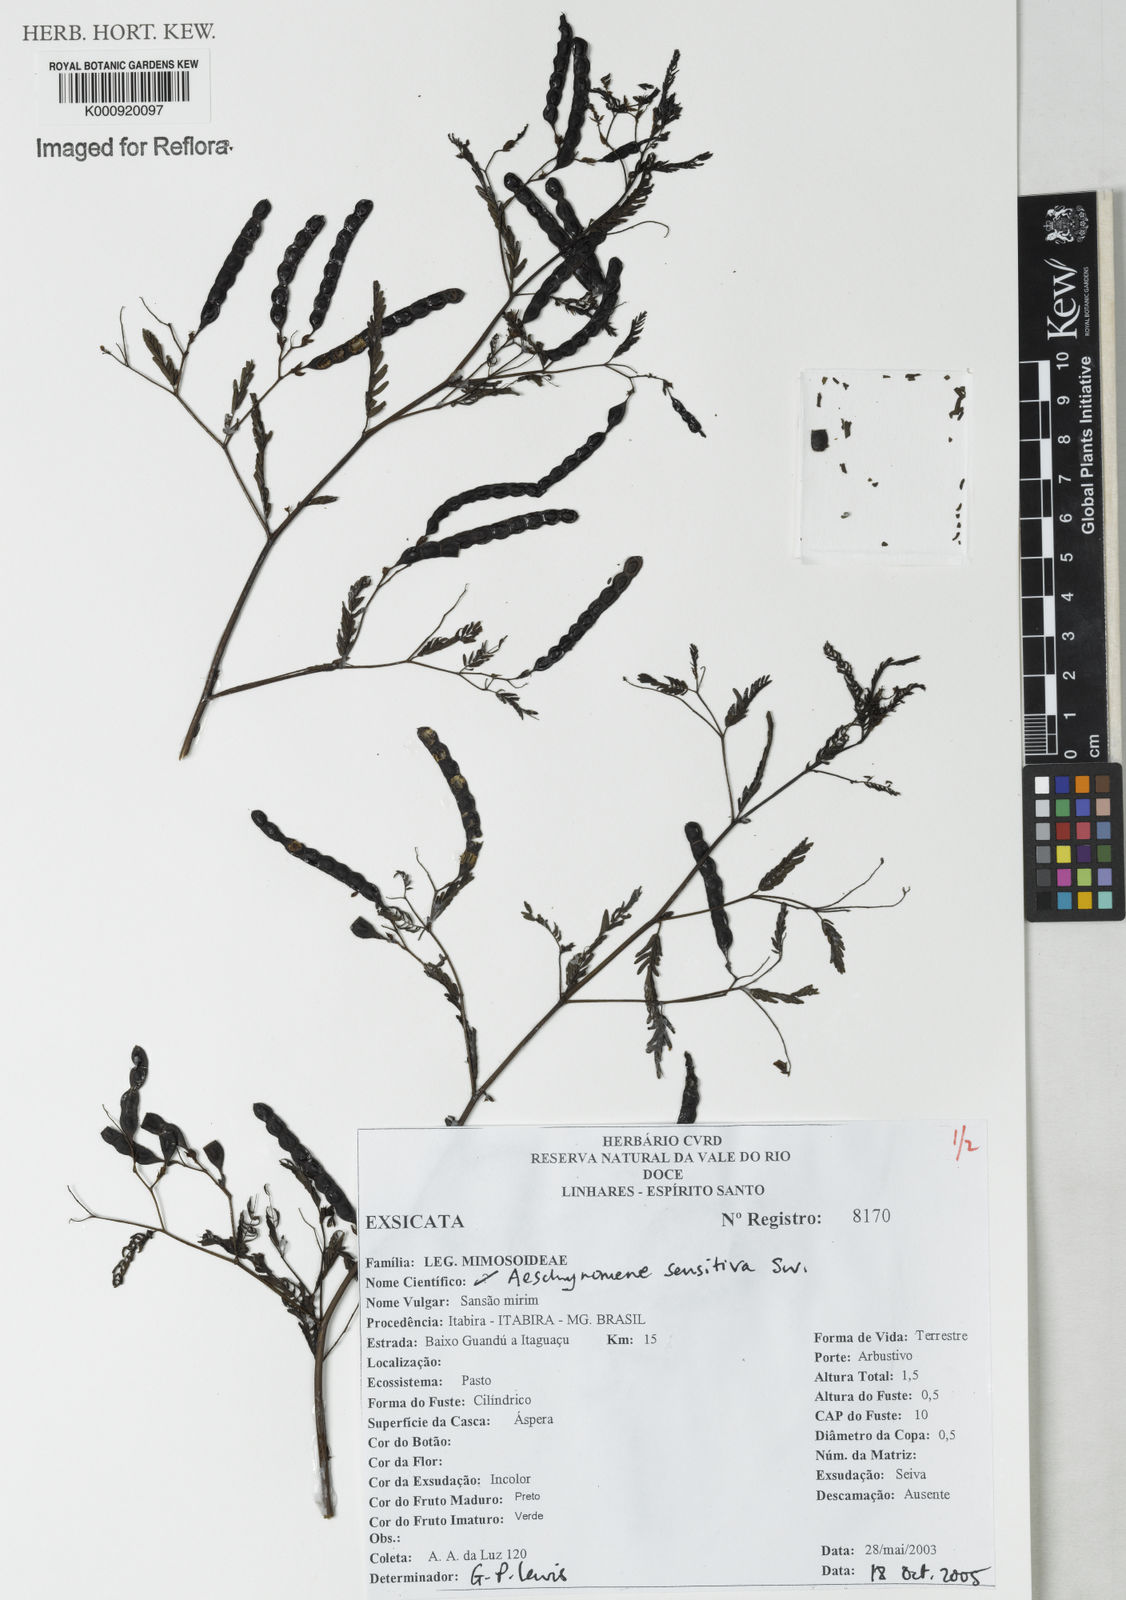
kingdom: Plantae
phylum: Tracheophyta
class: Magnoliopsida
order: Fabales
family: Fabaceae
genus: Aeschynomene
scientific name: Aeschynomene sensitiva
